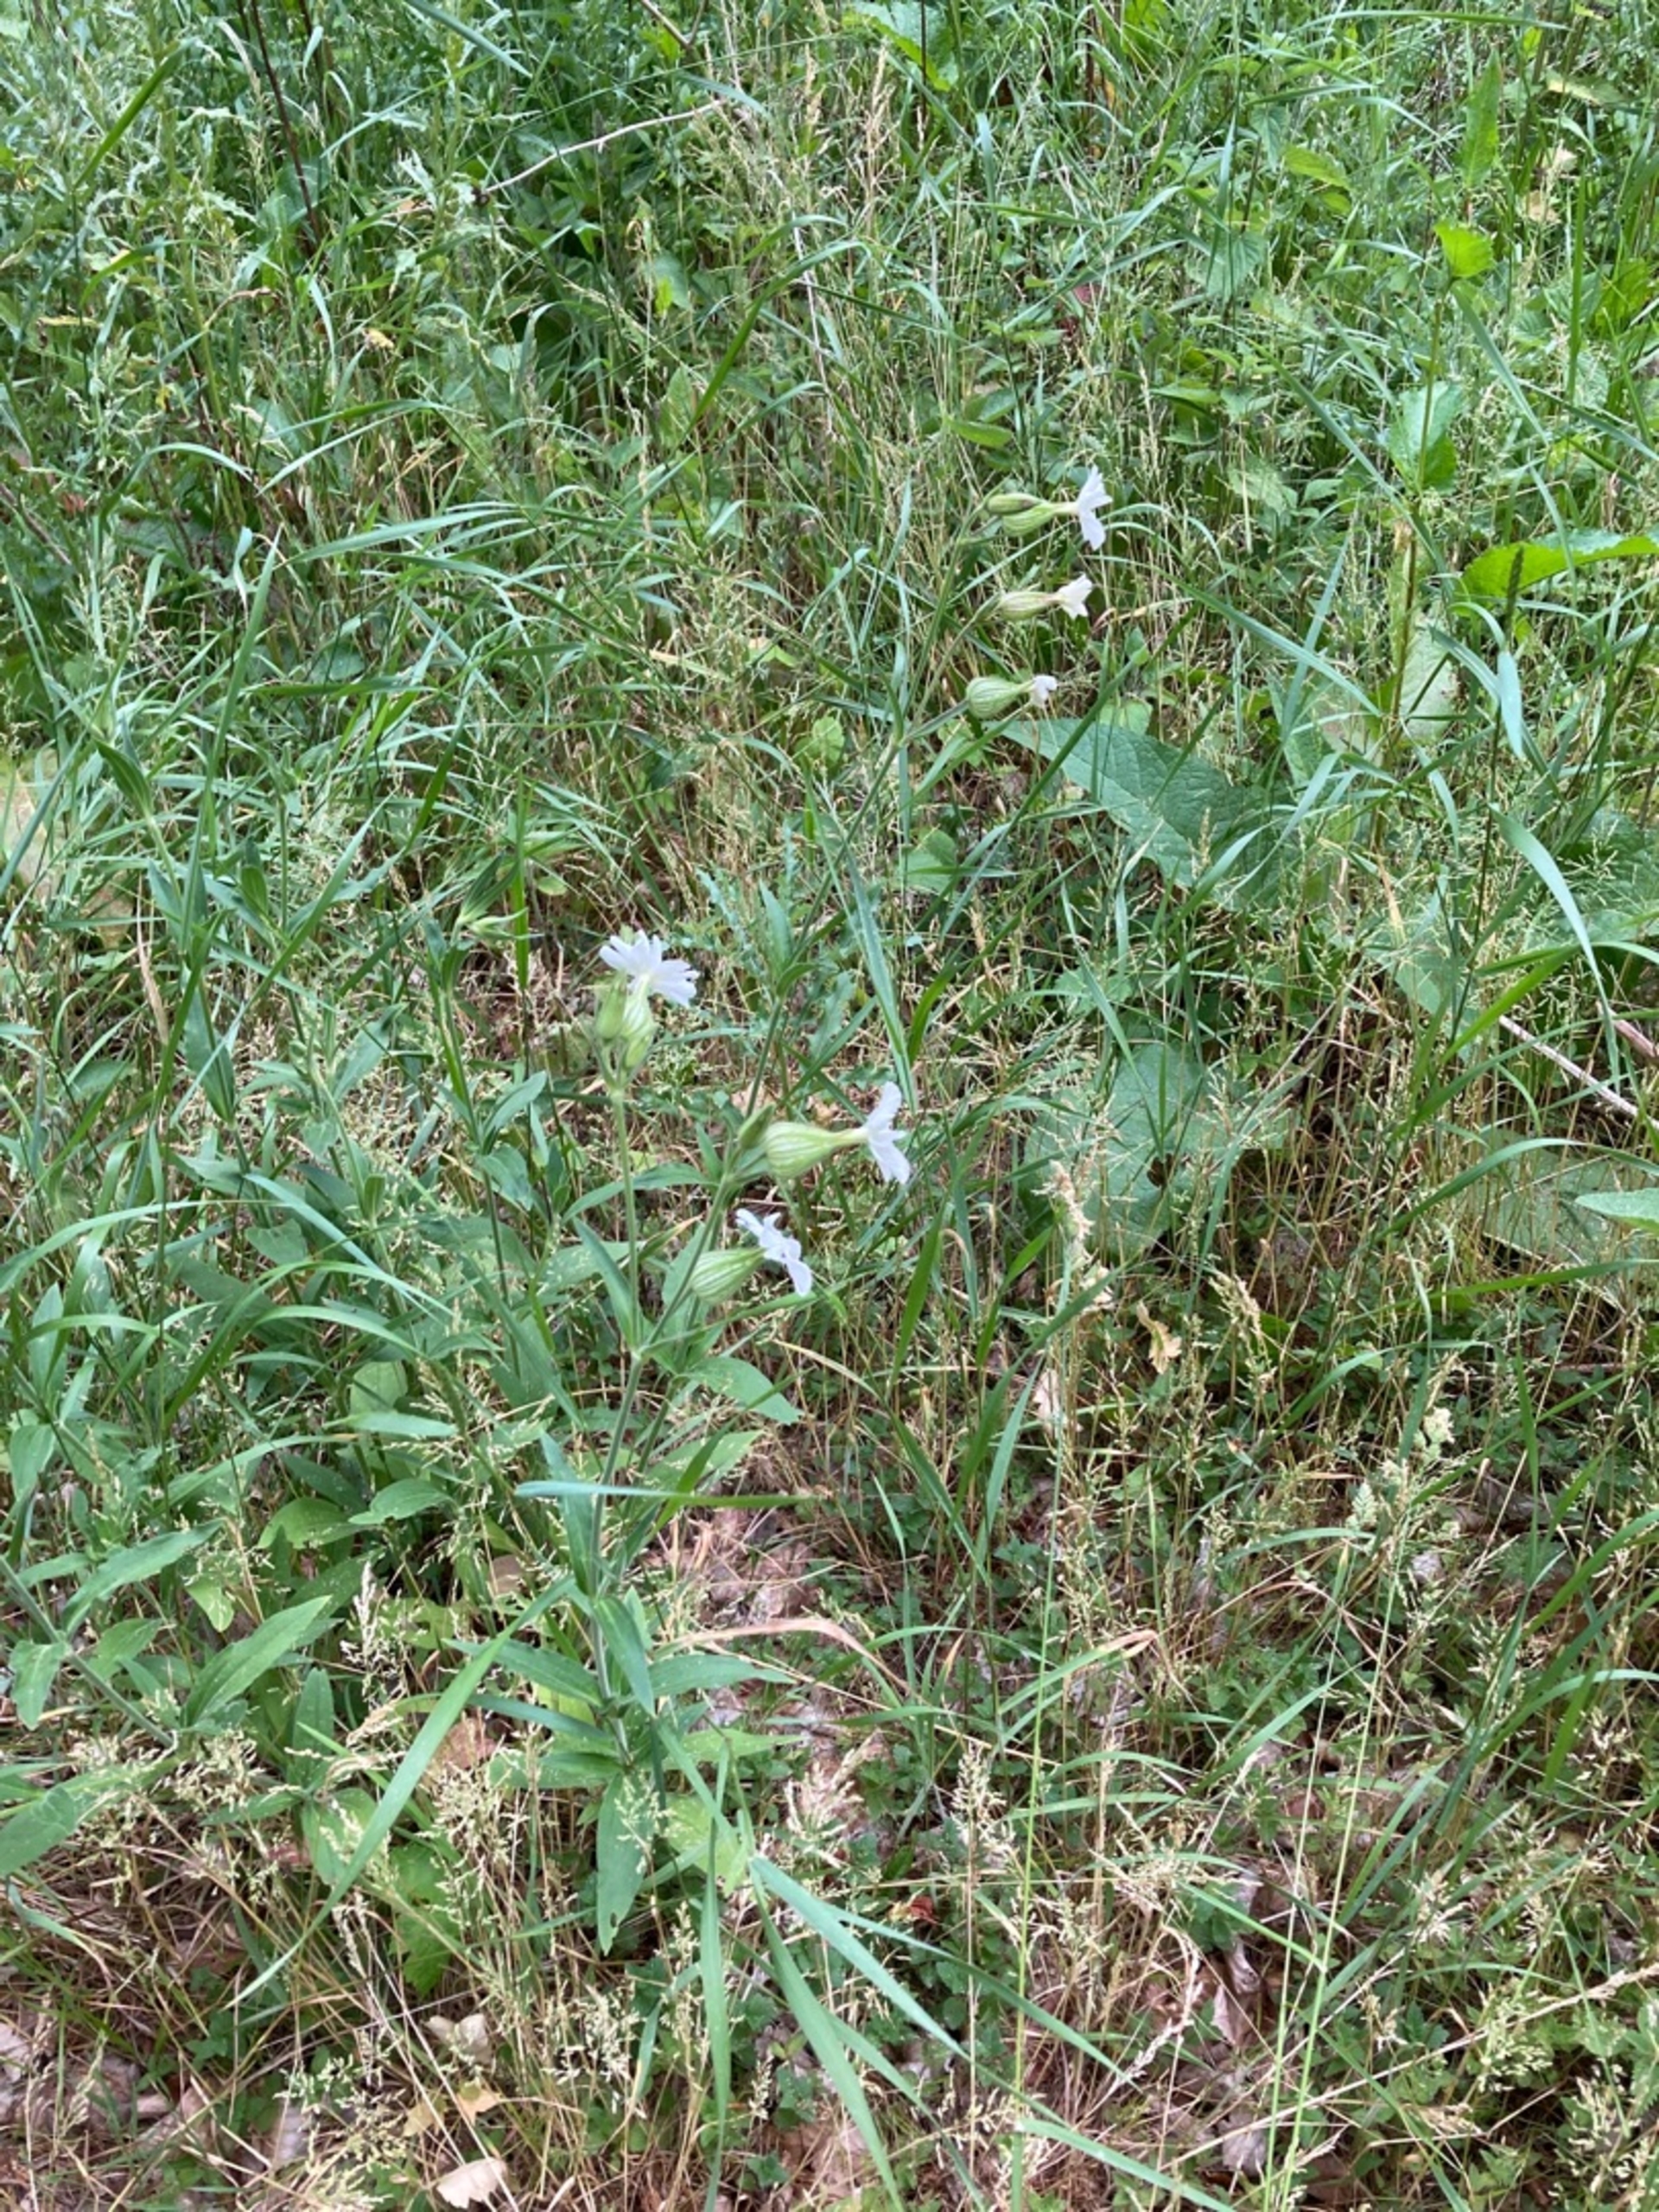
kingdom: Plantae
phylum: Tracheophyta
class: Magnoliopsida
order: Caryophyllales
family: Caryophyllaceae
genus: Silene
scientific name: Silene latifolia
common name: Aftenpragtstjerne
